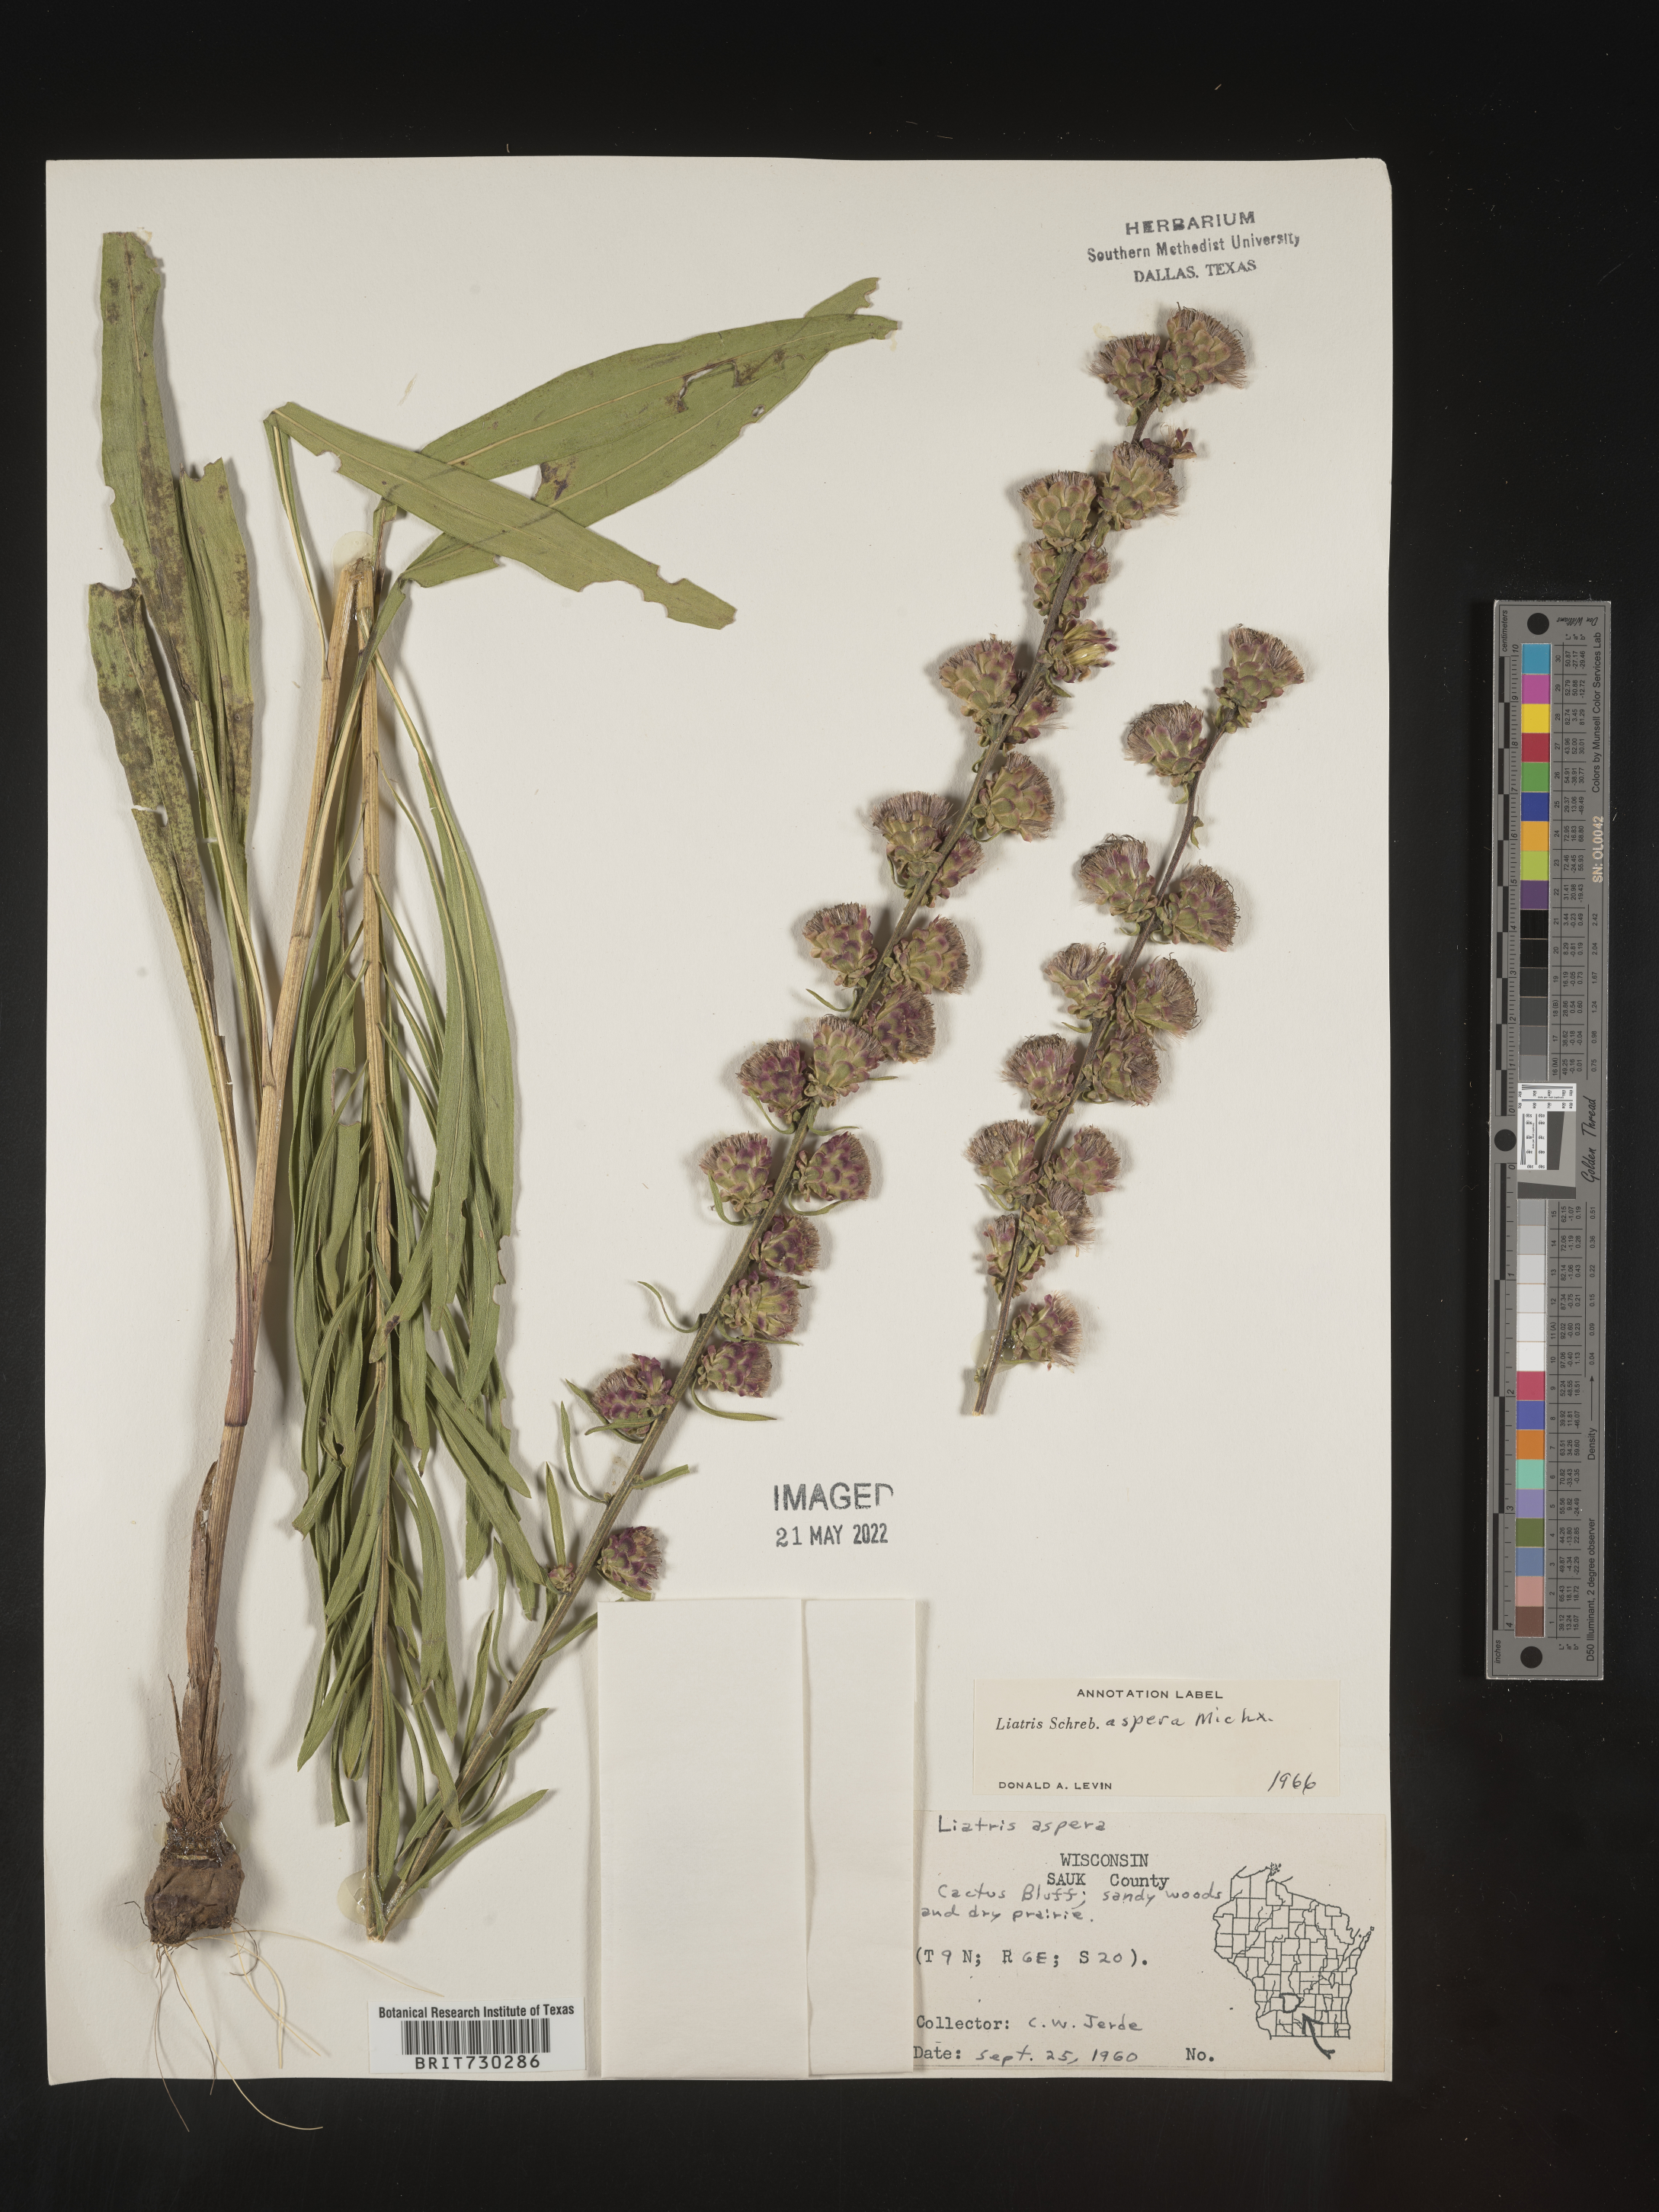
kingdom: Plantae
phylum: Tracheophyta
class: Magnoliopsida
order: Asterales
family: Asteraceae
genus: Liatris
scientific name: Liatris aspera
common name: Lacerate blazing-star
